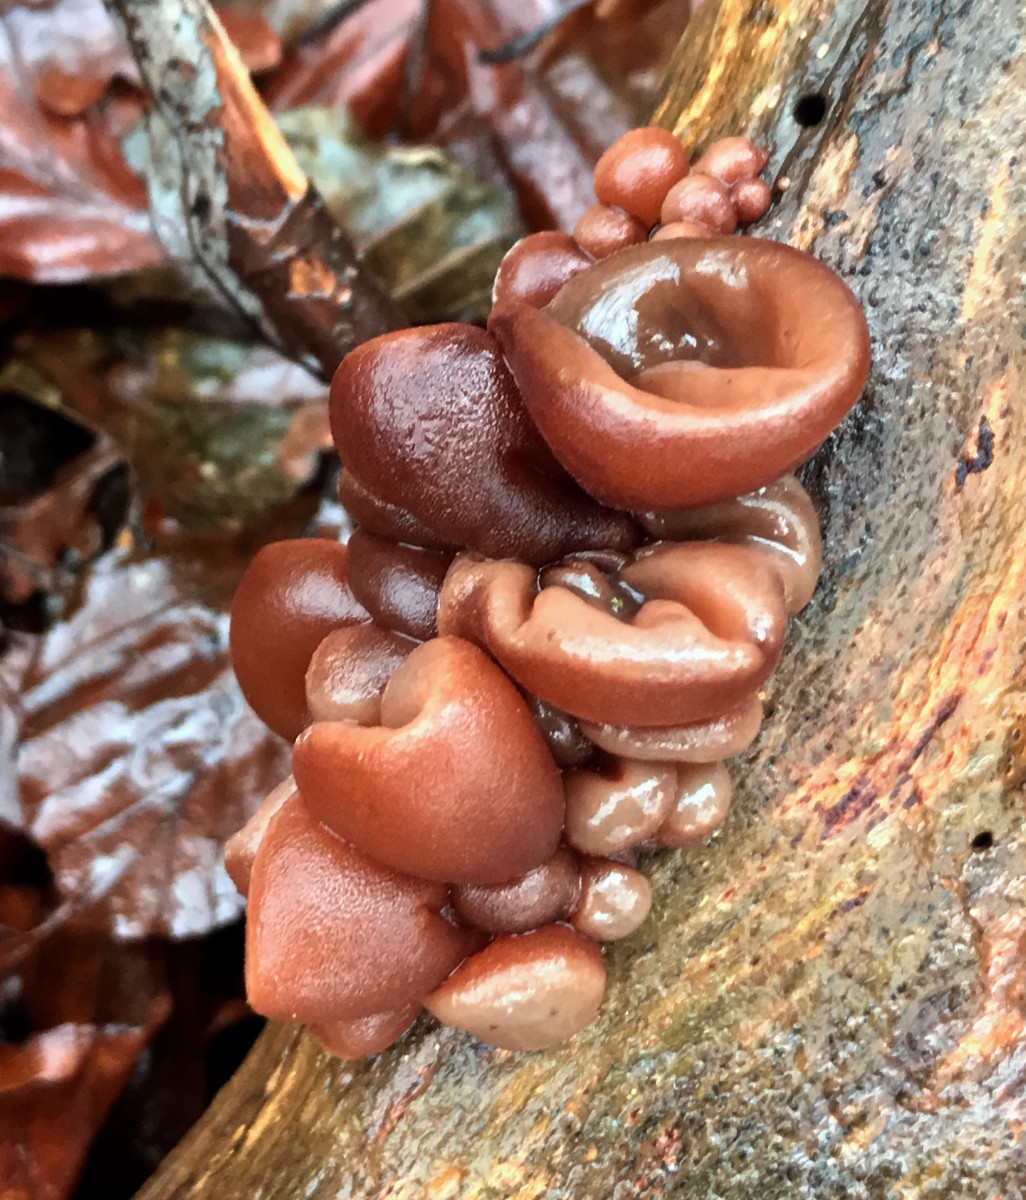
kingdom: Fungi
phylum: Basidiomycota
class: Agaricomycetes
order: Auriculariales
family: Auriculariaceae
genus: Auricularia
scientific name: Auricularia auricula-judae
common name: almindelig judasøre
